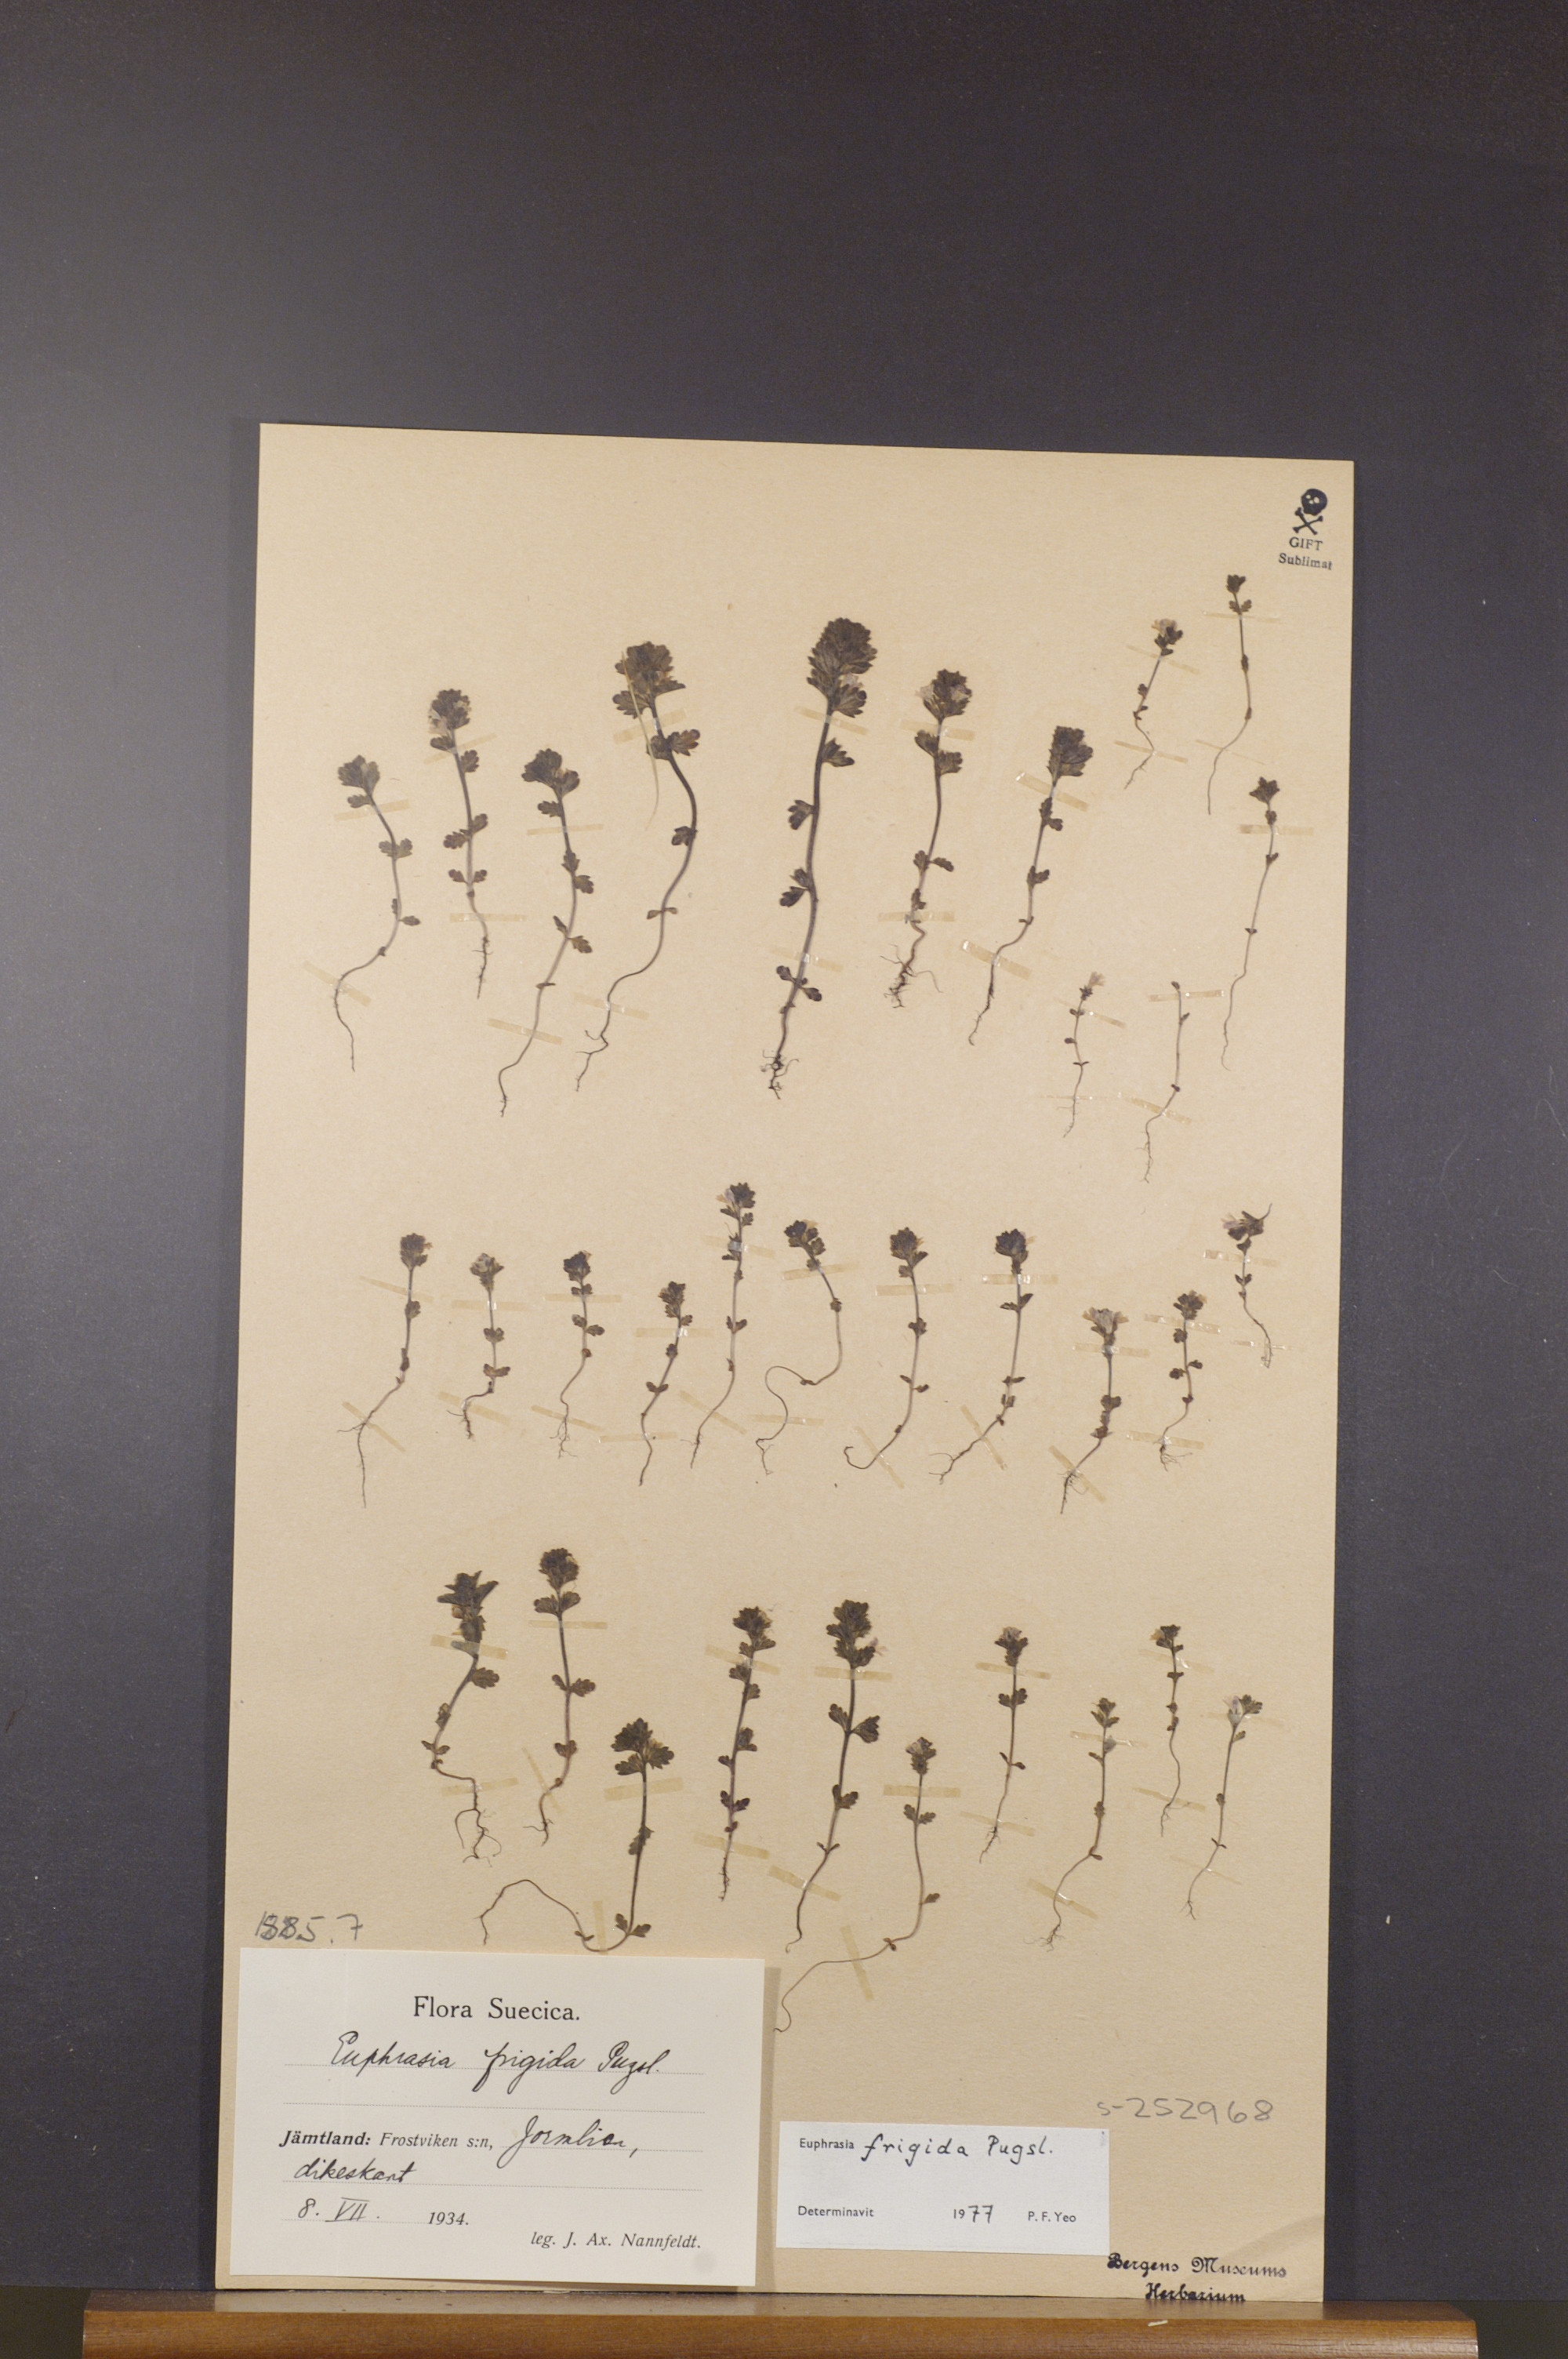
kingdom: Plantae
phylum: Tracheophyta
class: Magnoliopsida
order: Lamiales
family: Orobanchaceae
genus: Euphrasia
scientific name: Euphrasia frigida
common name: An eyebright
